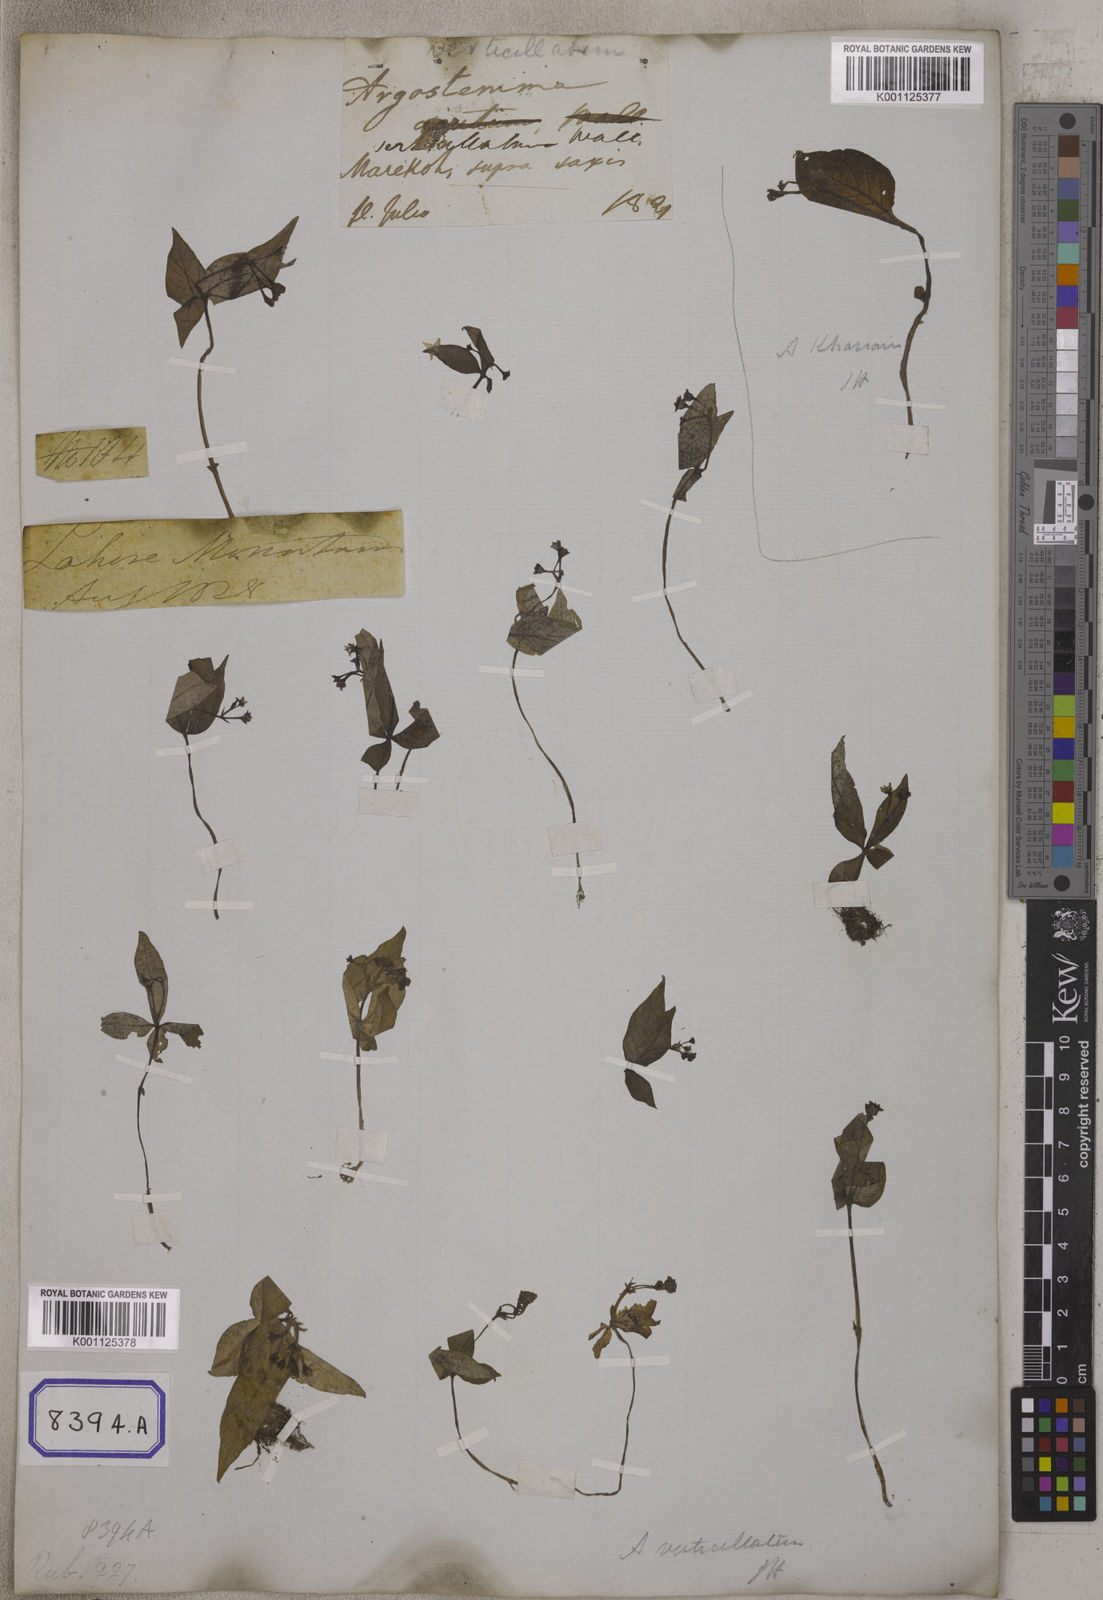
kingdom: Plantae
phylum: Tracheophyta
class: Magnoliopsida
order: Gentianales
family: Rubiaceae
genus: Argostemma
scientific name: Argostemma verticillatum
